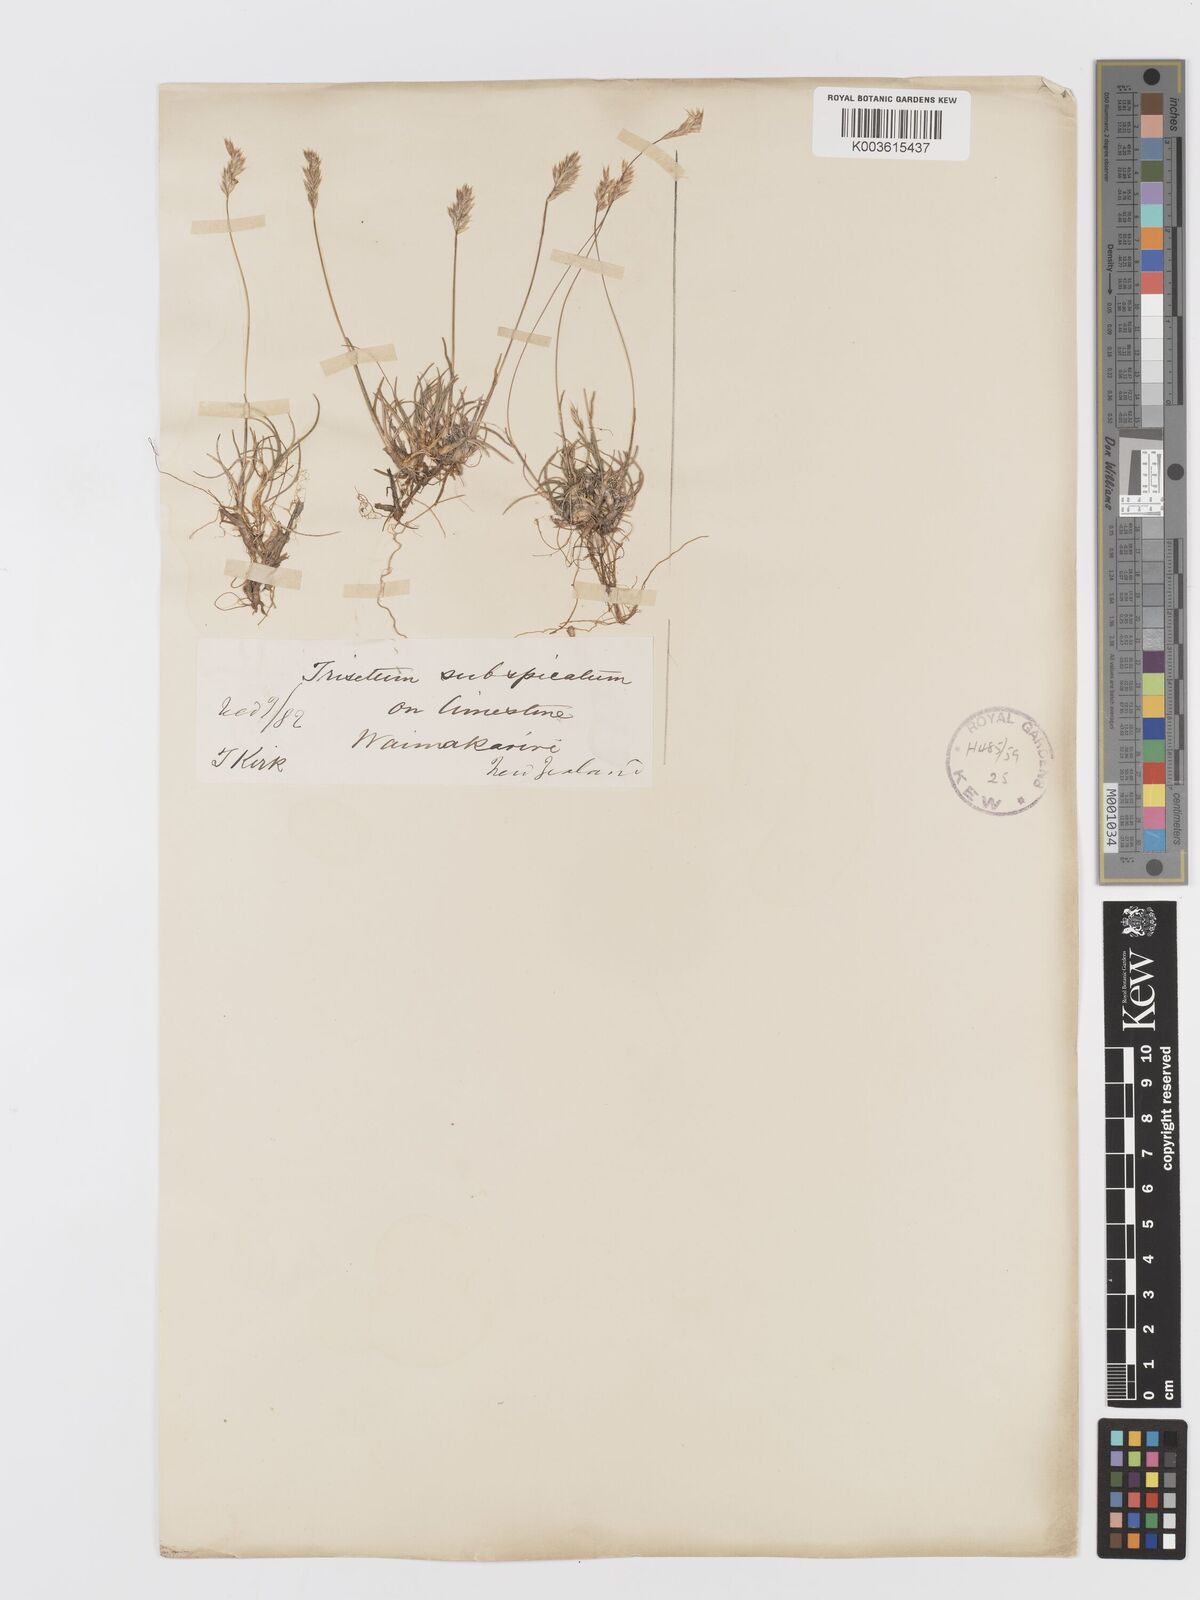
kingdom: Plantae
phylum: Tracheophyta
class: Liliopsida
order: Poales
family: Poaceae
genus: Koeleria
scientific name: Koeleria spicata
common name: Mountain trisetum
